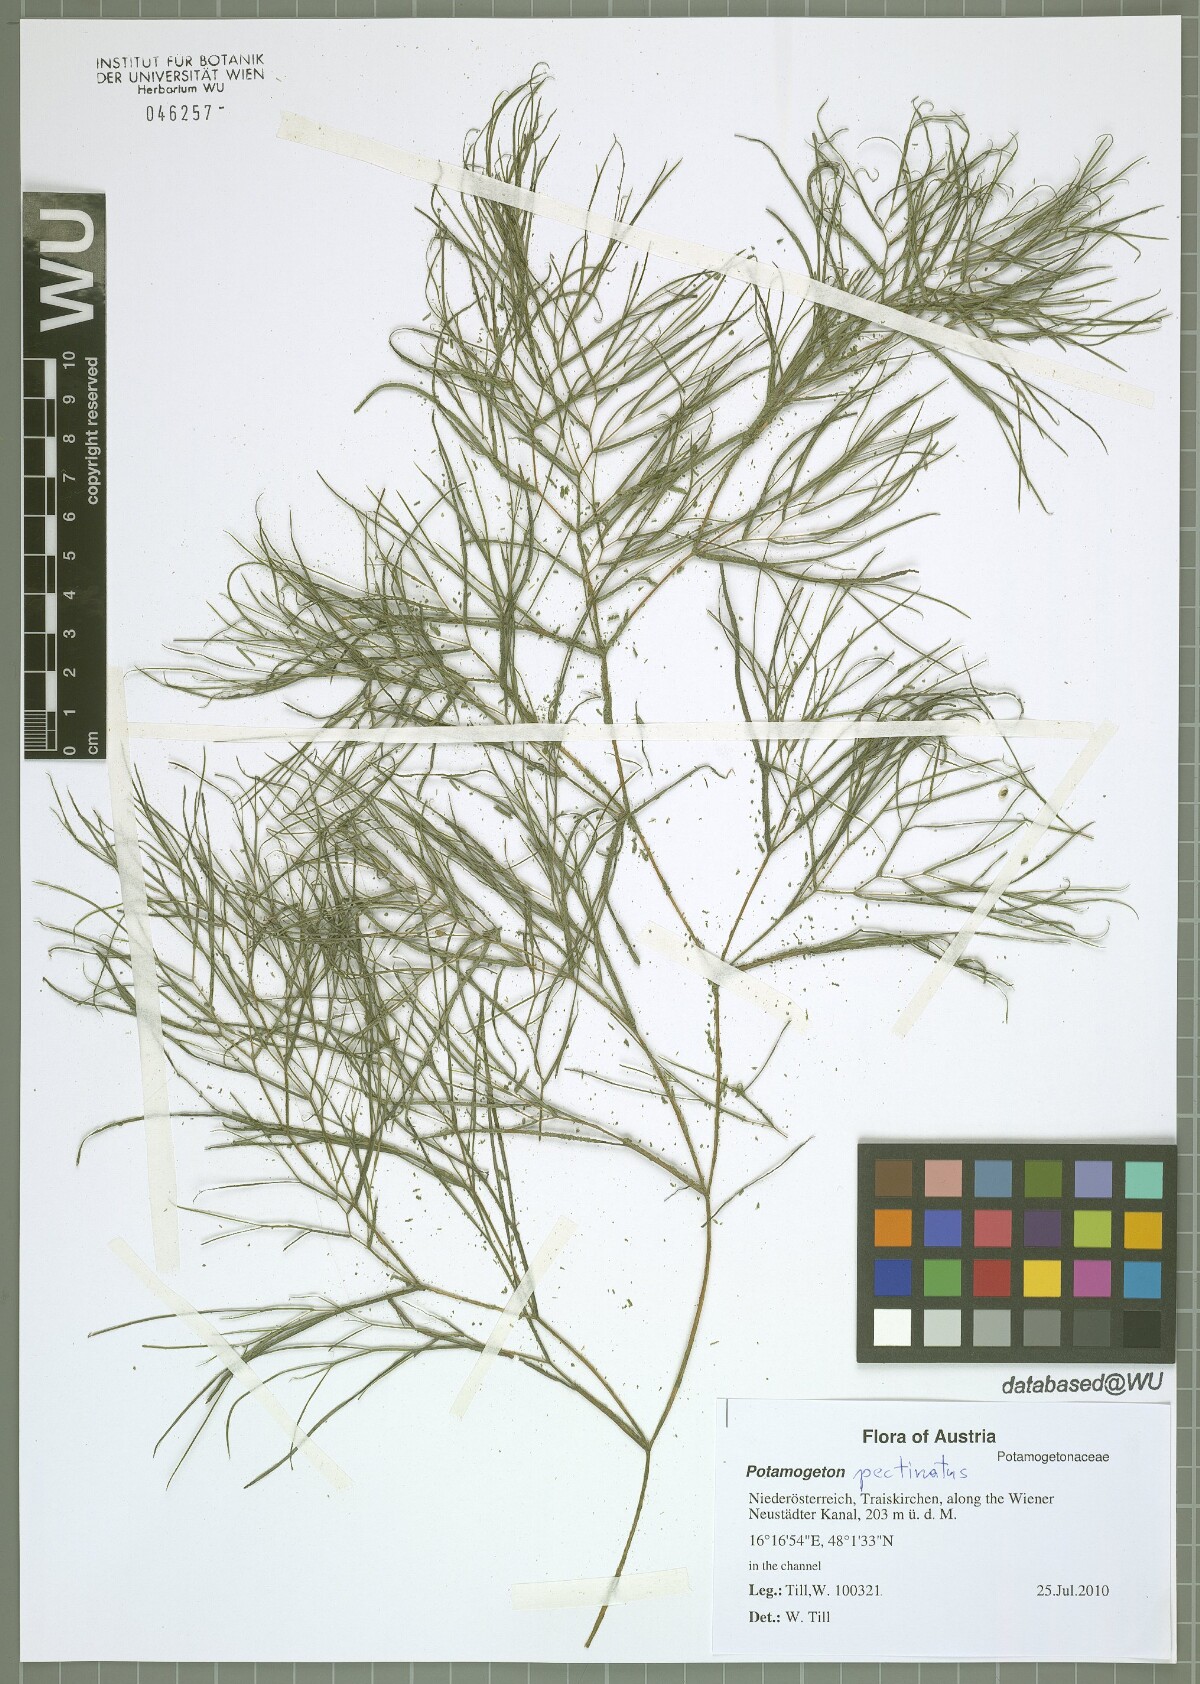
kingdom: Plantae
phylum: Tracheophyta
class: Liliopsida
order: Alismatales
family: Potamogetonaceae
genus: Stuckenia
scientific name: Stuckenia pectinata
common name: Sago pondweed
